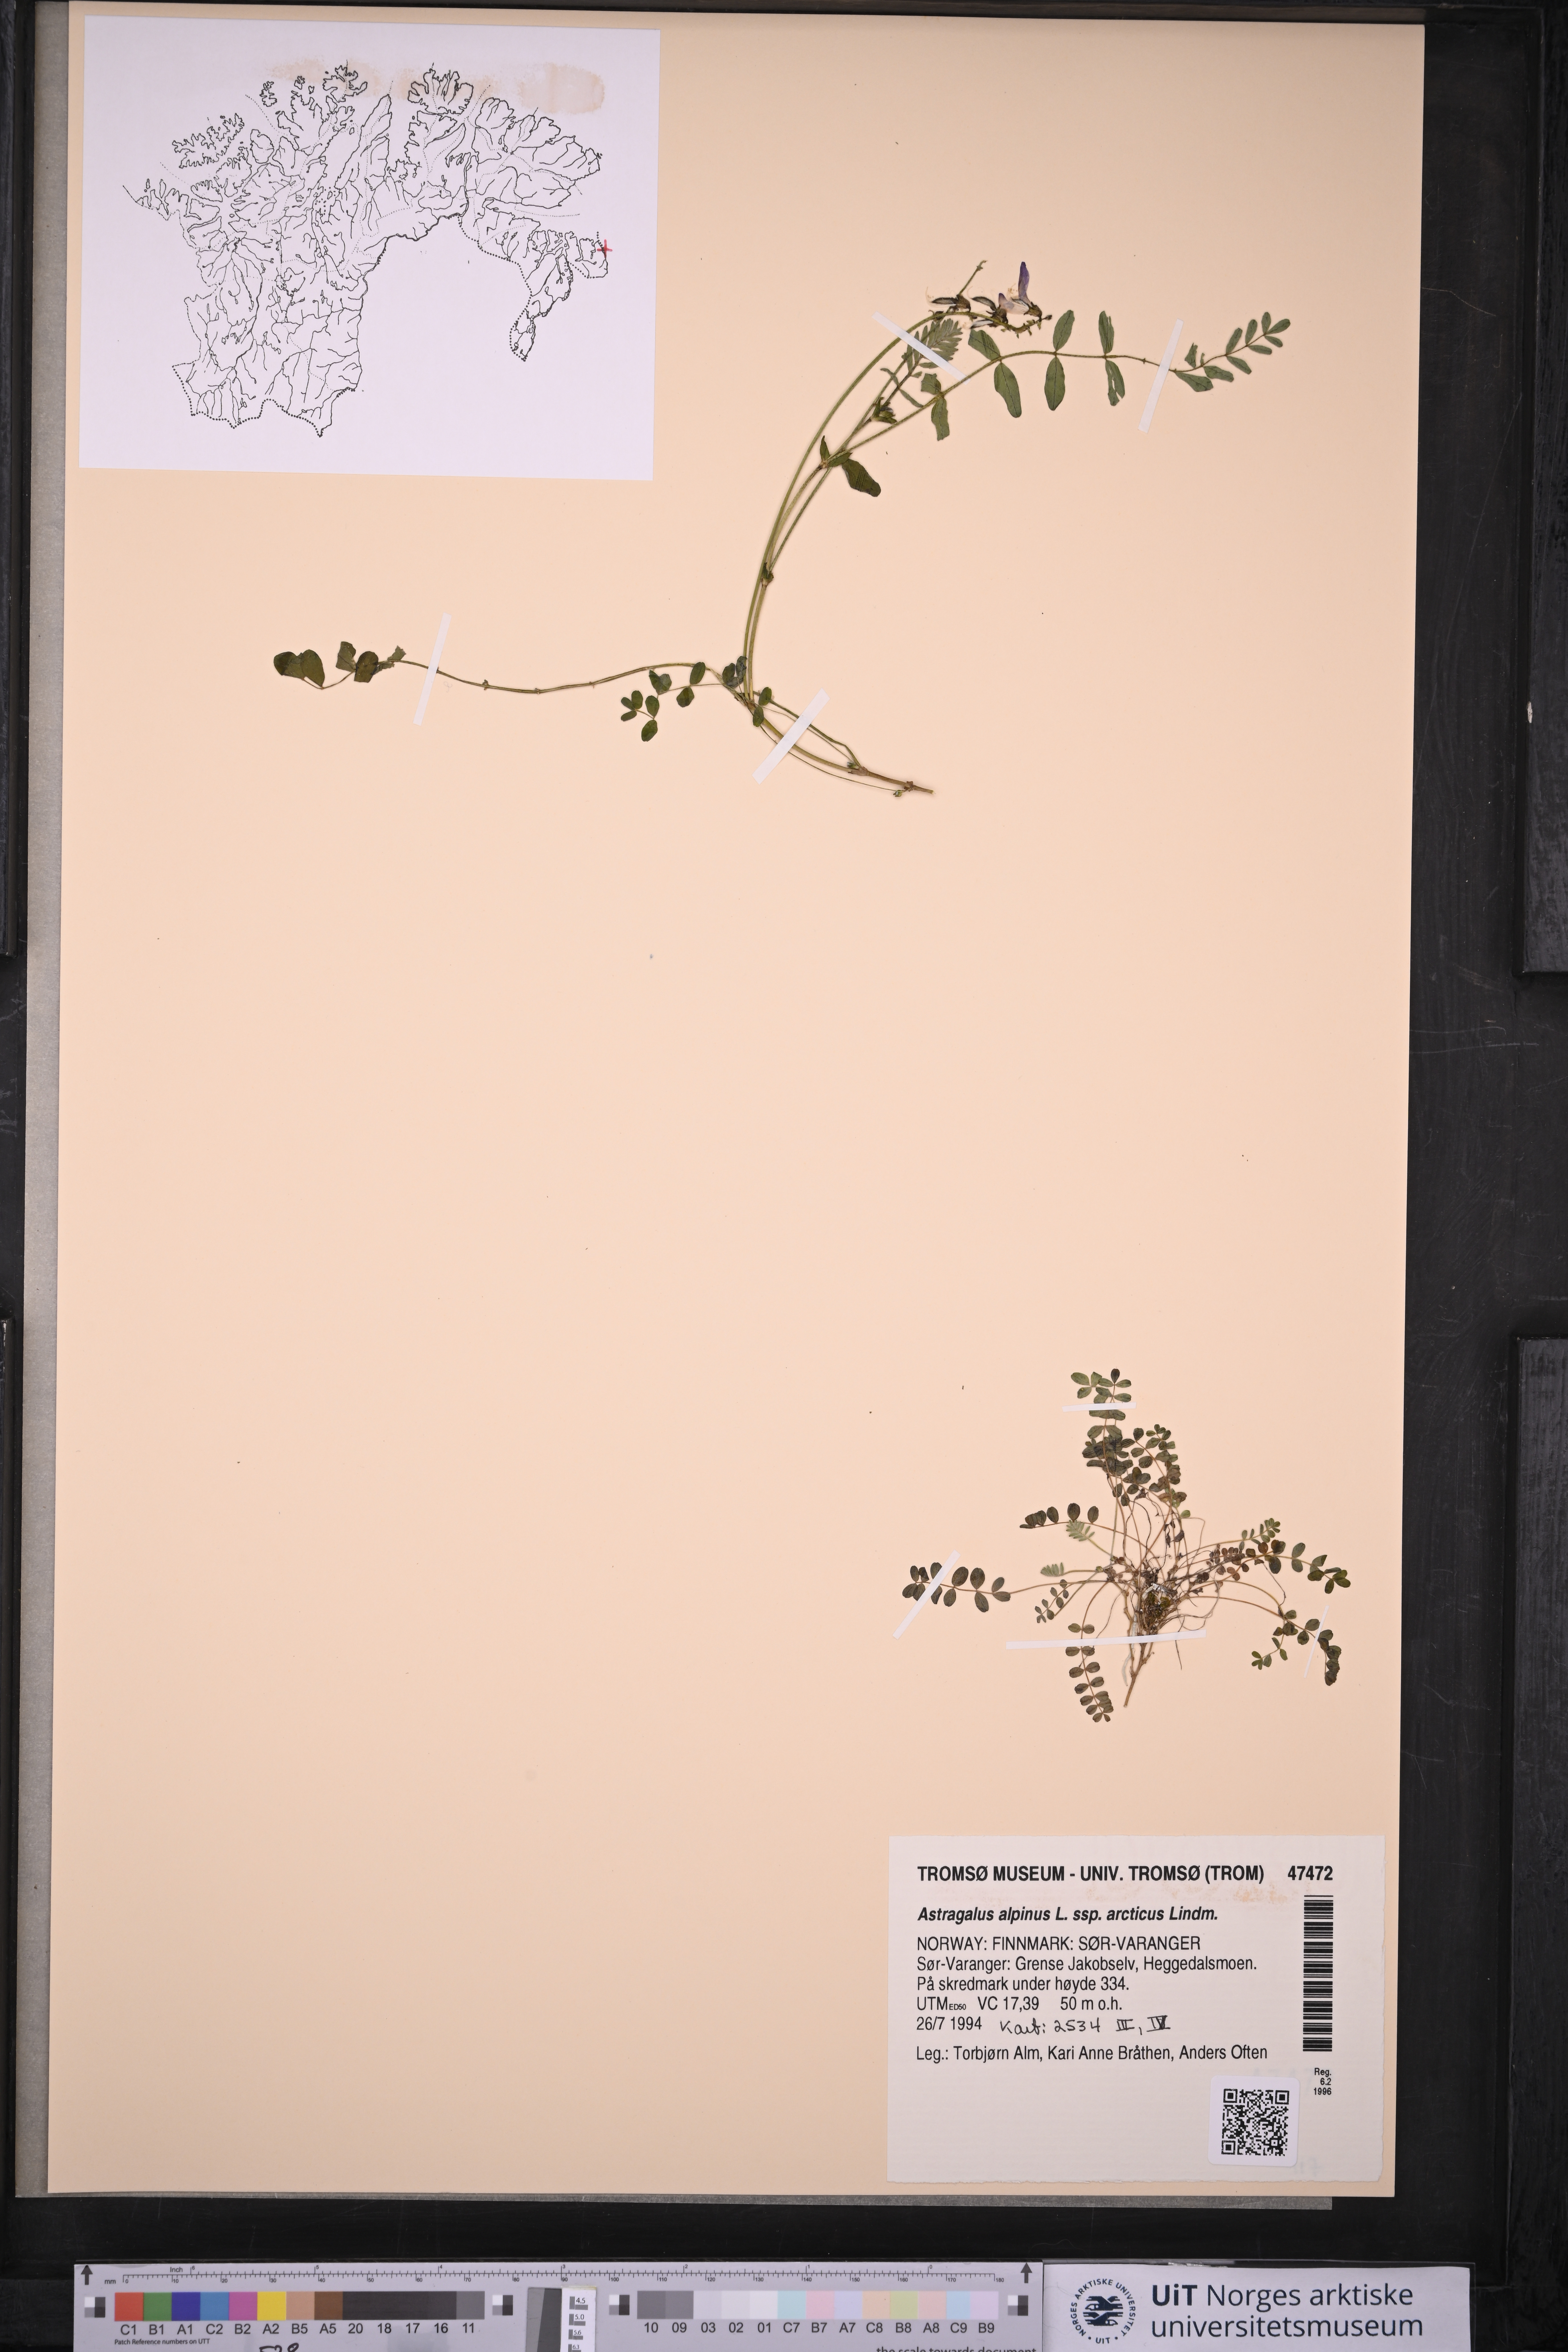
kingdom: Plantae
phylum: Tracheophyta
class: Magnoliopsida
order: Fabales
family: Fabaceae
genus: Astragalus
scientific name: Astragalus norvegicus
